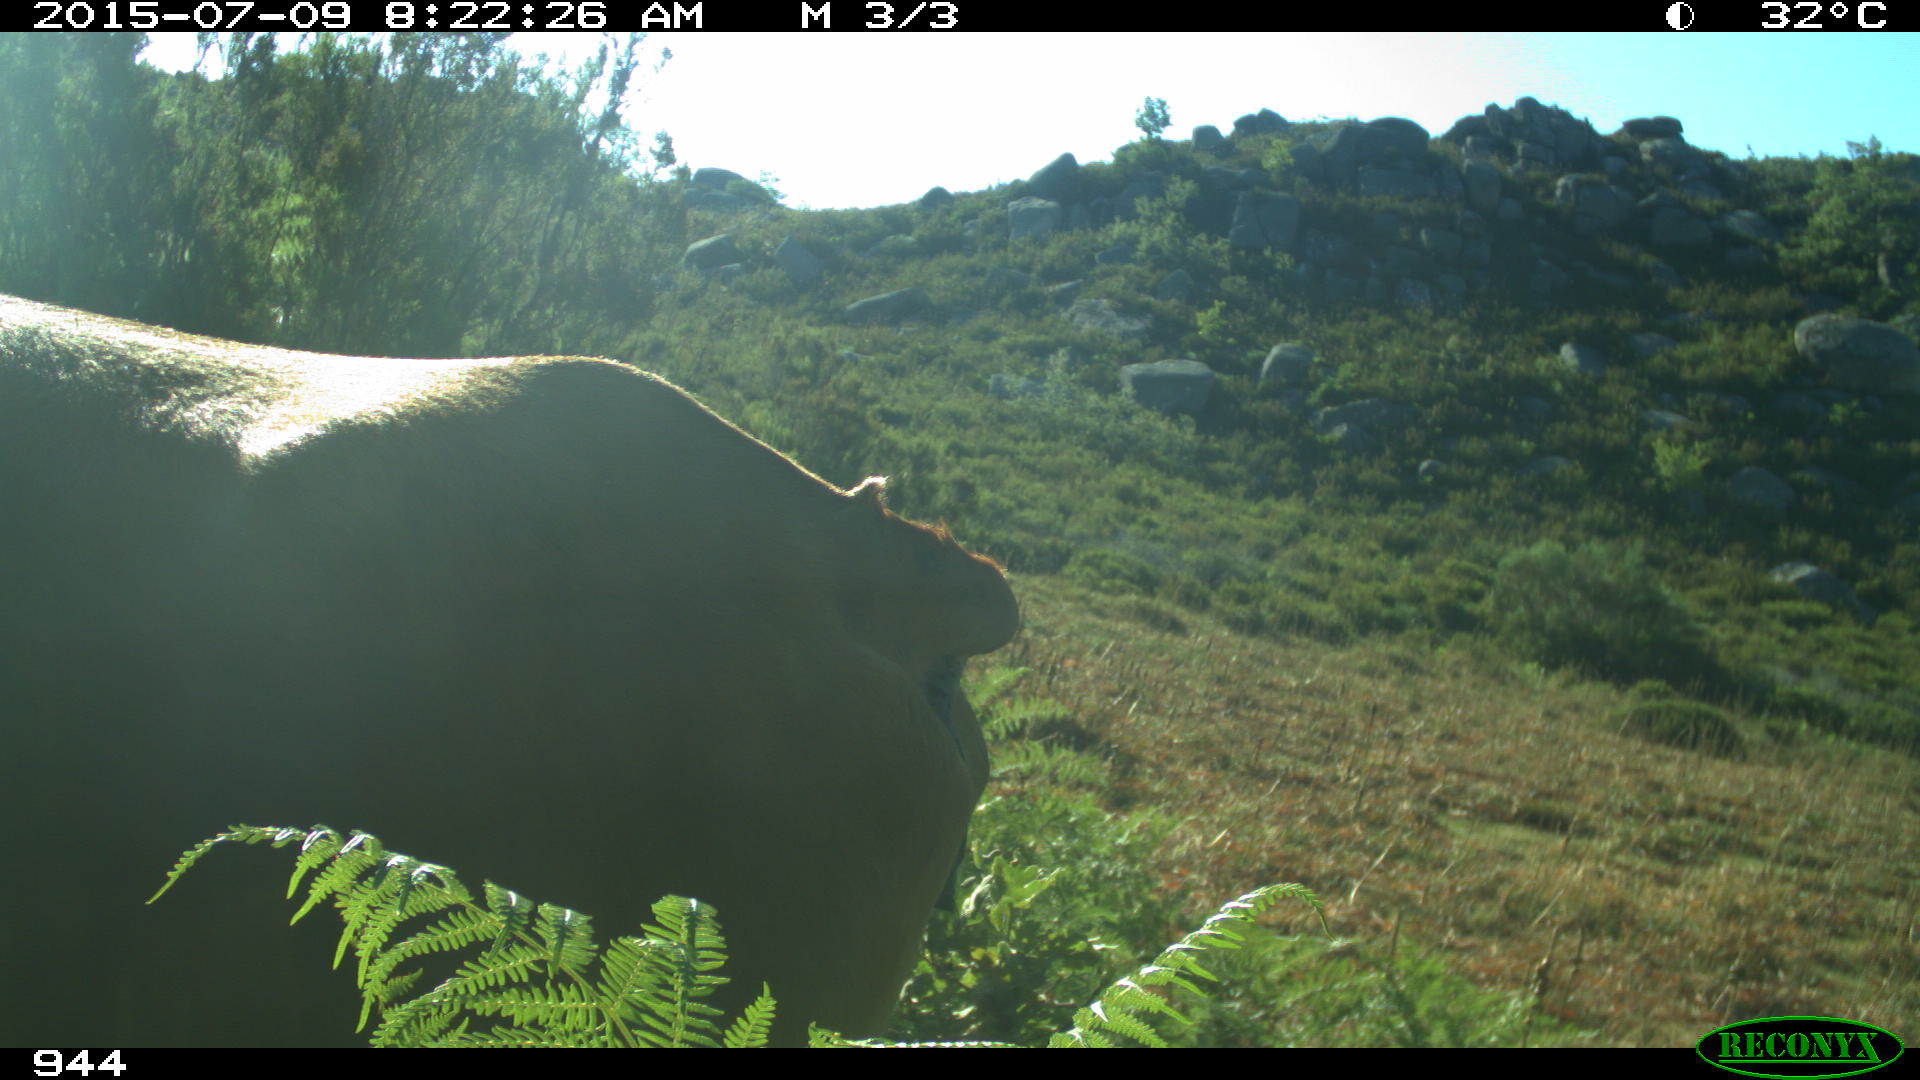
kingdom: Animalia
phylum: Chordata
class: Mammalia
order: Artiodactyla
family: Bovidae
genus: Bos
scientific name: Bos taurus
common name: Domesticated cattle
